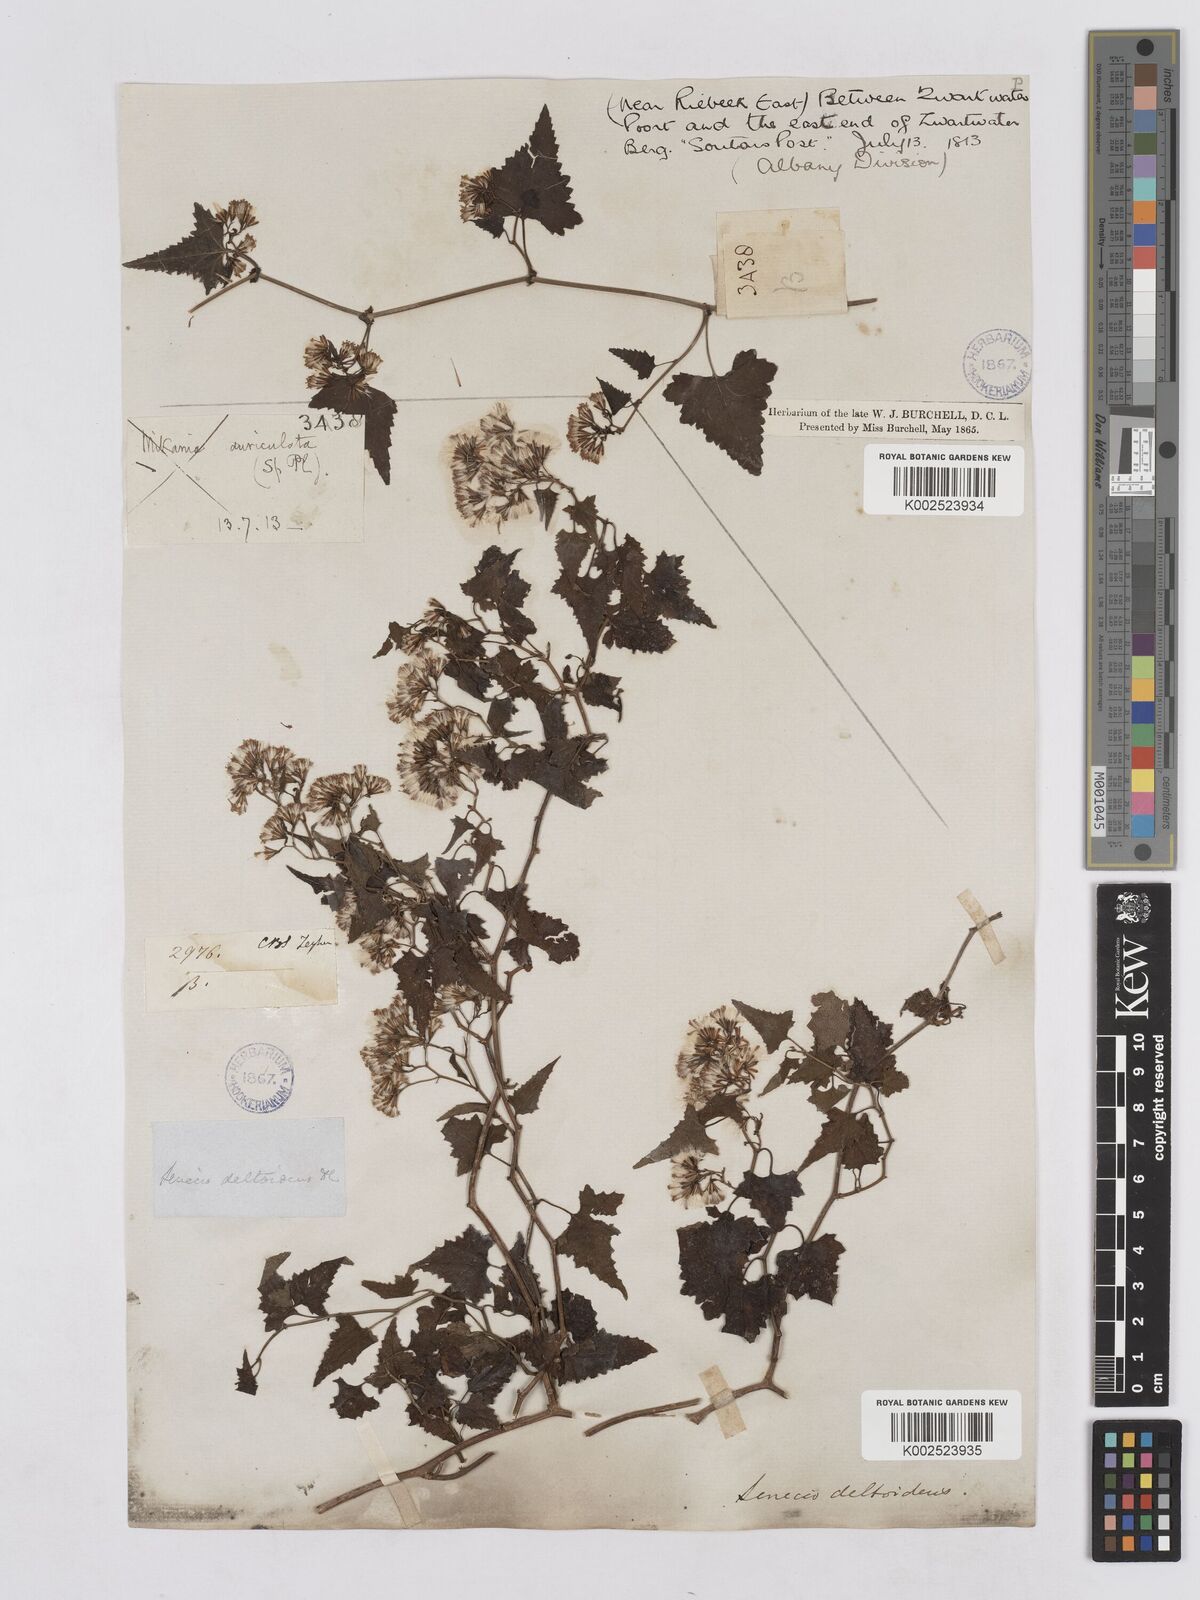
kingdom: Plantae
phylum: Tracheophyta
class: Magnoliopsida
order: Asterales
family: Asteraceae
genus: Senecio
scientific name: Senecio deltoideus
